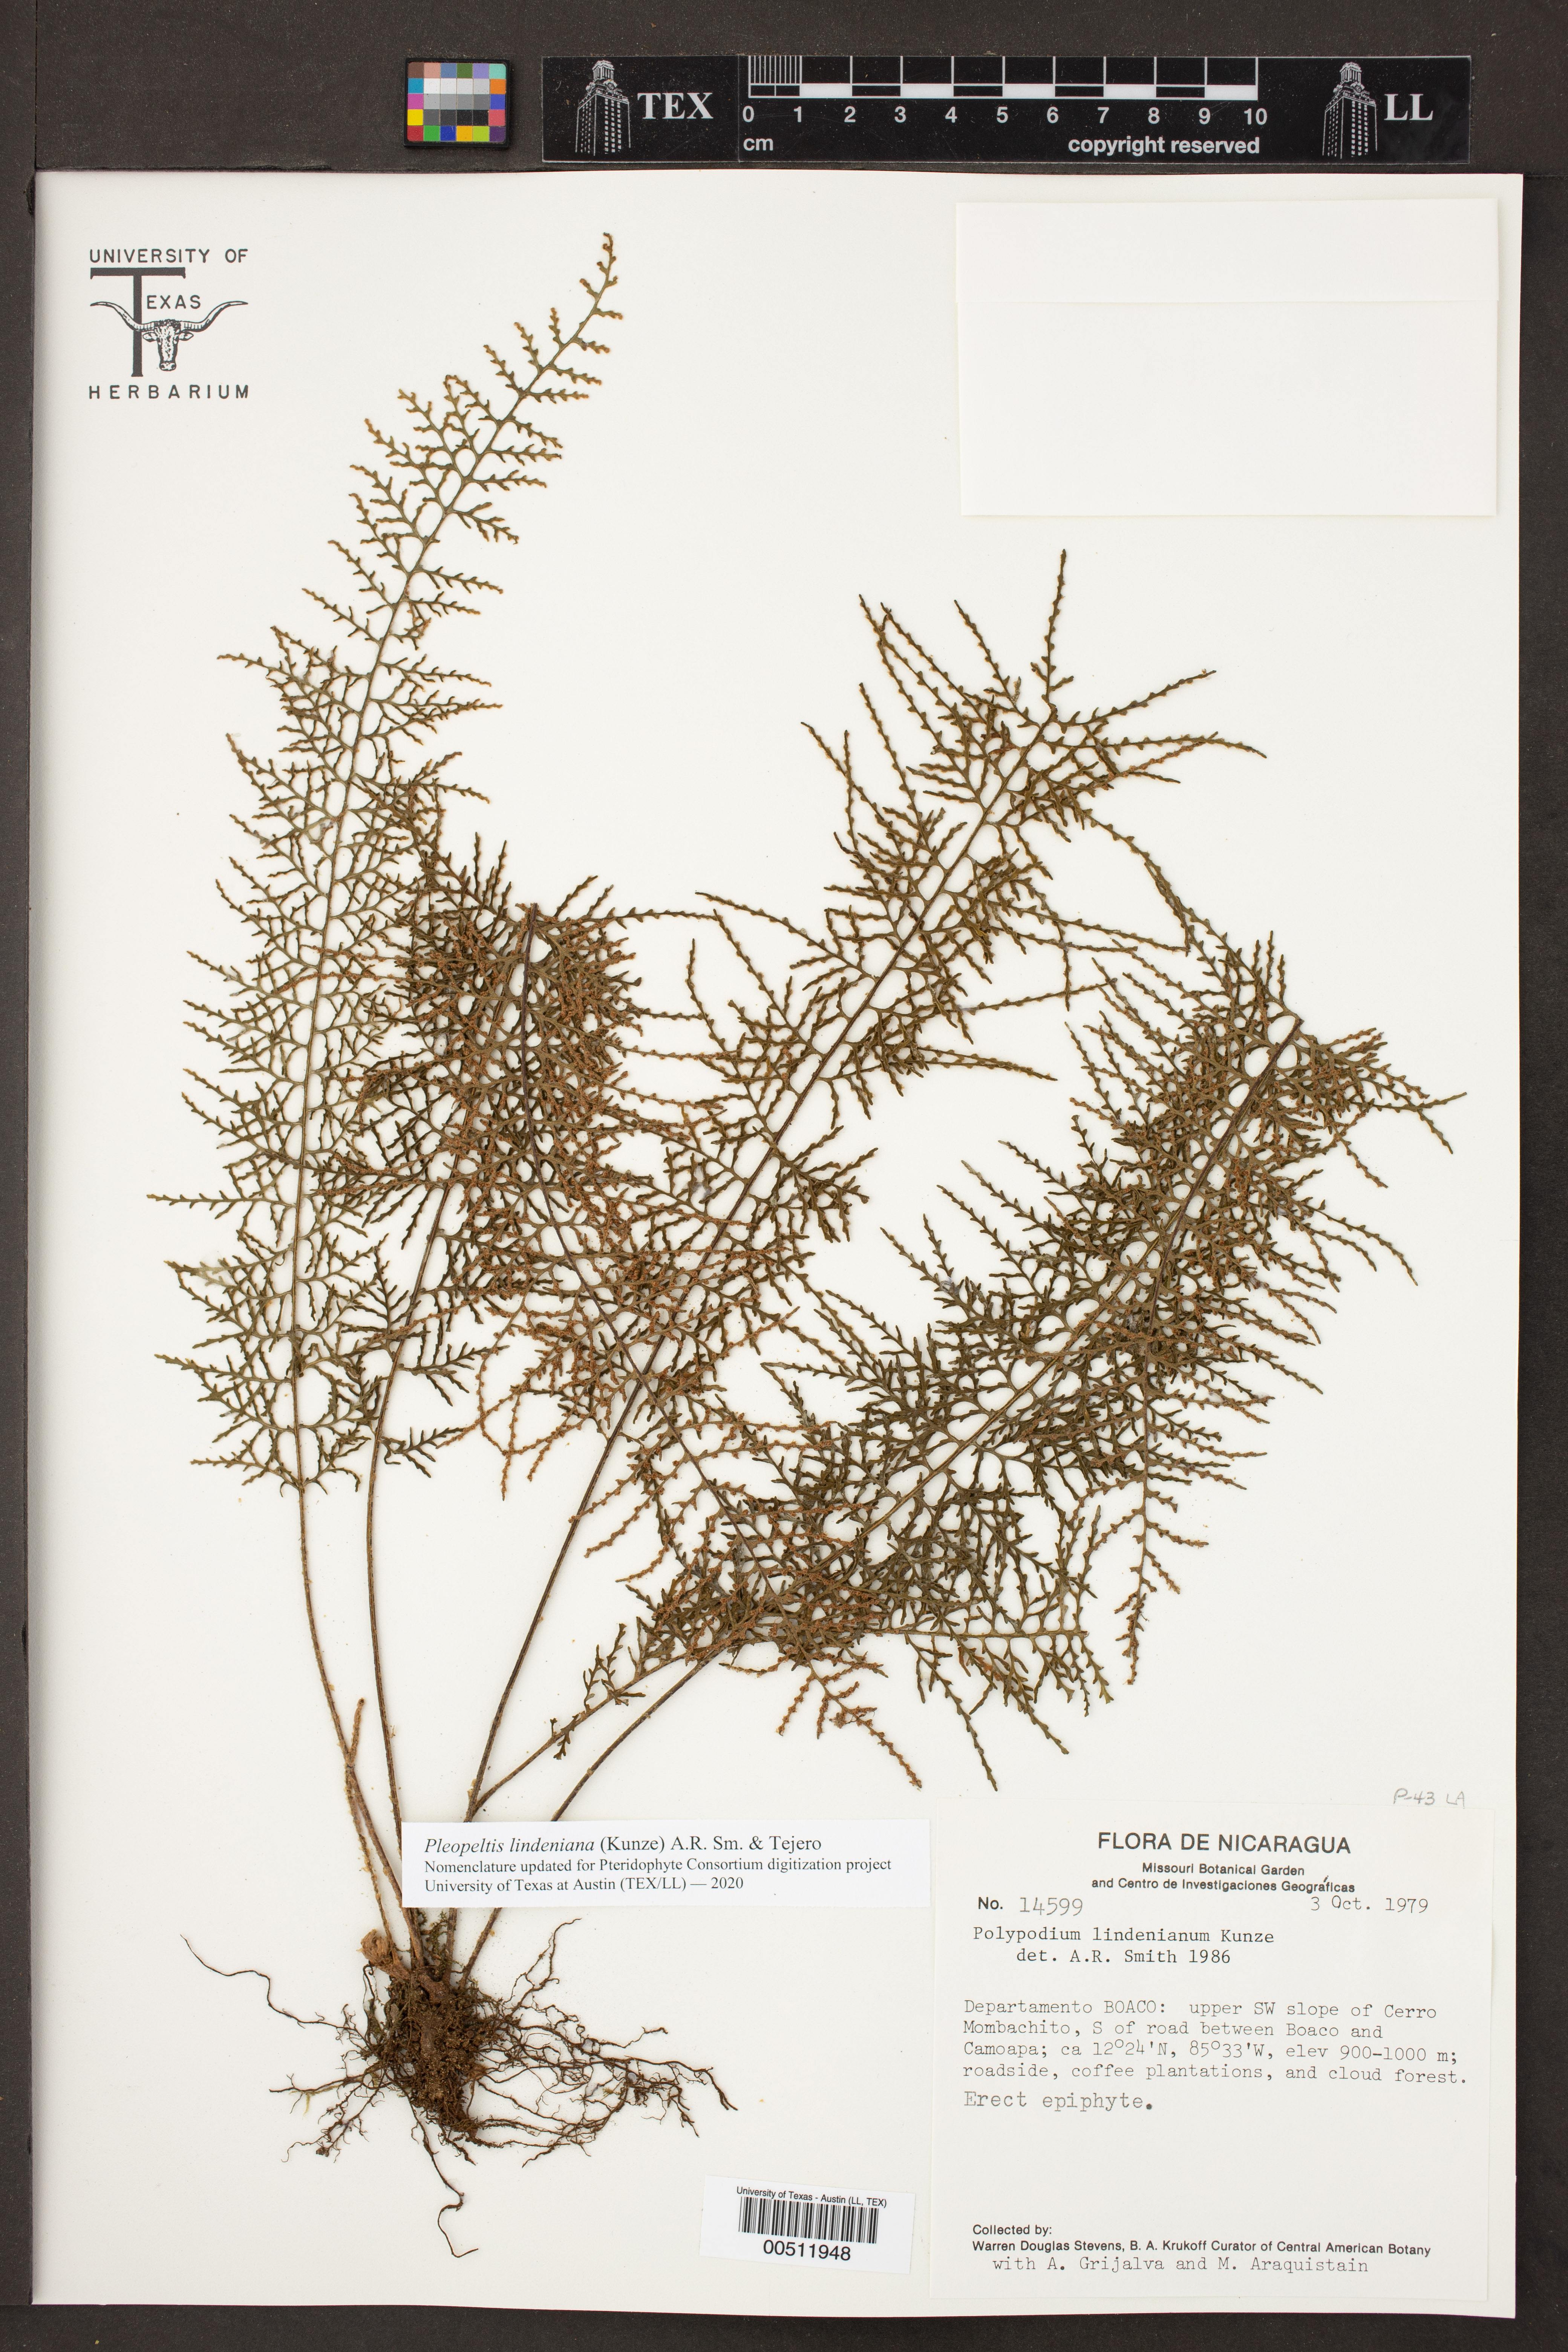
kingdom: Plantae
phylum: Tracheophyta
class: Polypodiopsida
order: Polypodiales
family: Polypodiaceae
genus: Pleopeltis
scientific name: Pleopeltis lindeniana
